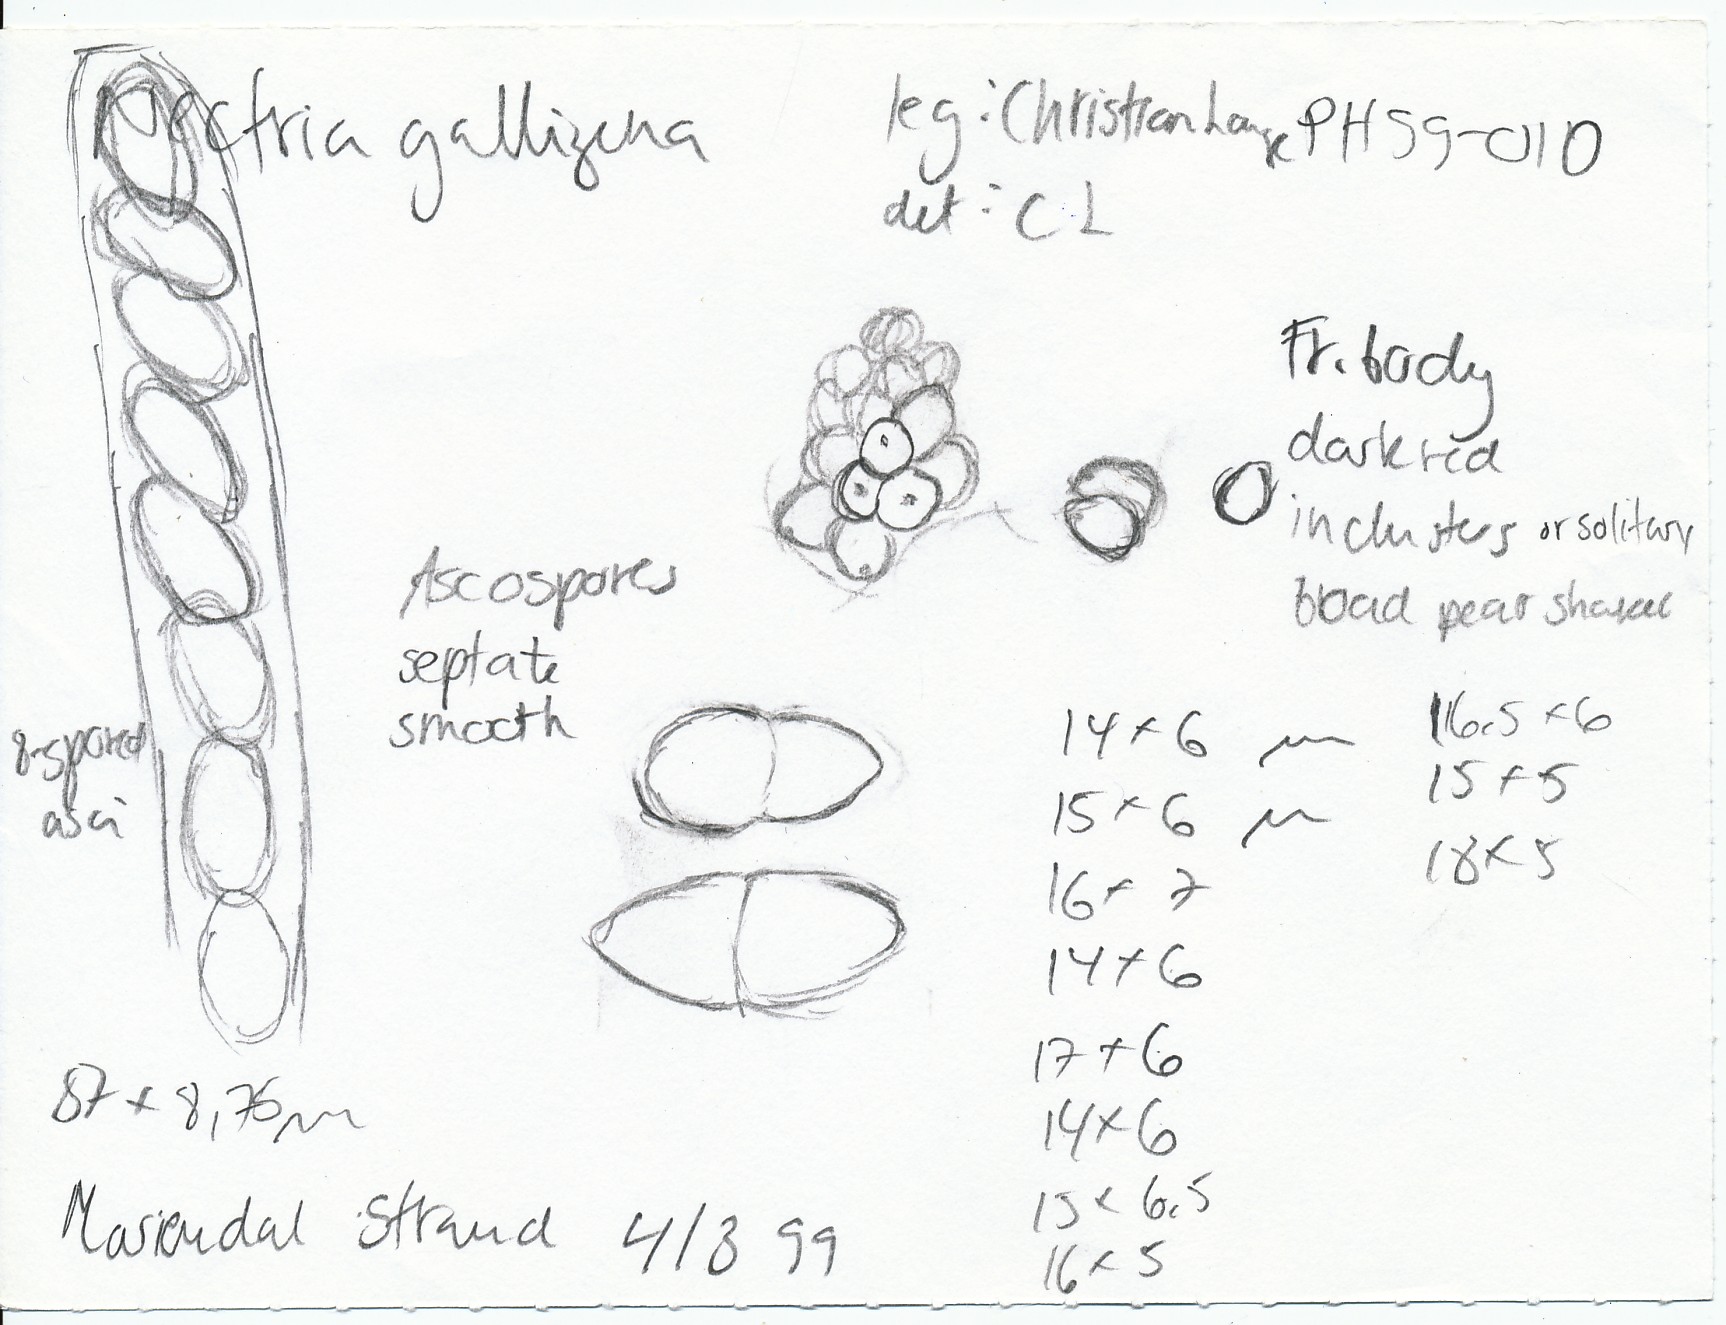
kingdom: Fungi
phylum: Ascomycota
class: Sordariomycetes
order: Hypocreales
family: Nectriaceae
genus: Neonectria
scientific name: Neonectria ditissima
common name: frugttræ-cinnobersvamp
